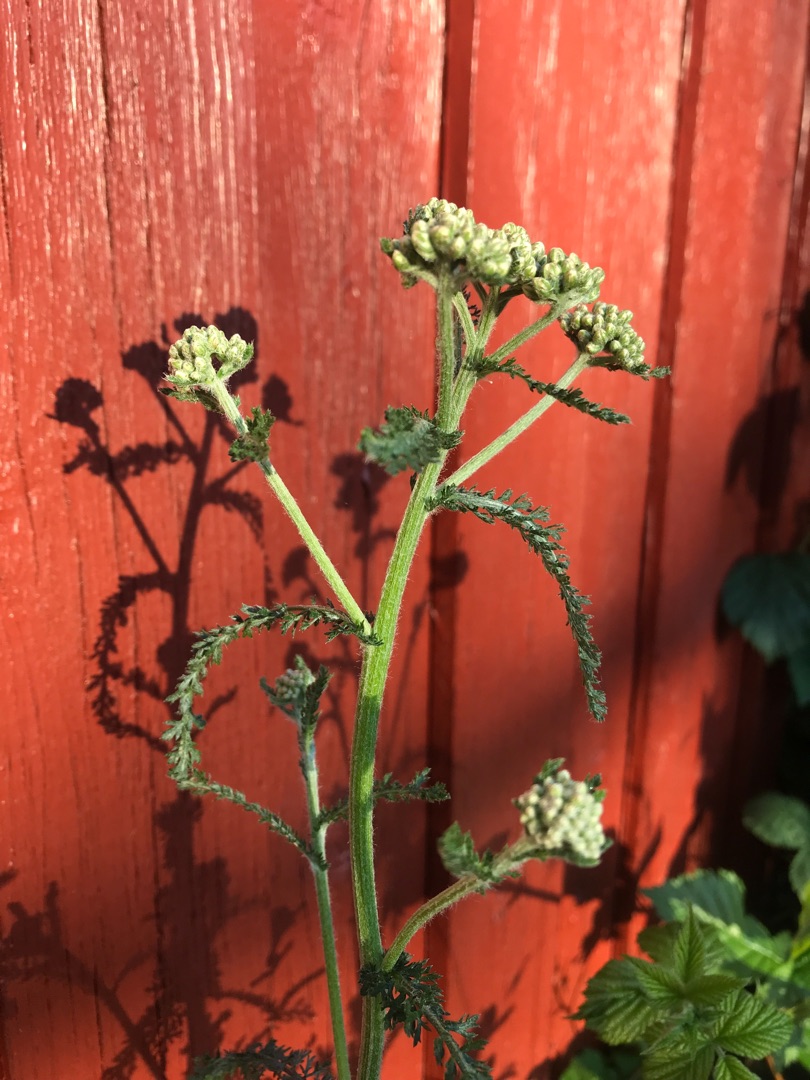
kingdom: Plantae
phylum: Tracheophyta
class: Magnoliopsida
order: Asterales
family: Asteraceae
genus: Achillea
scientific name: Achillea millefolium
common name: Almindelig røllike
